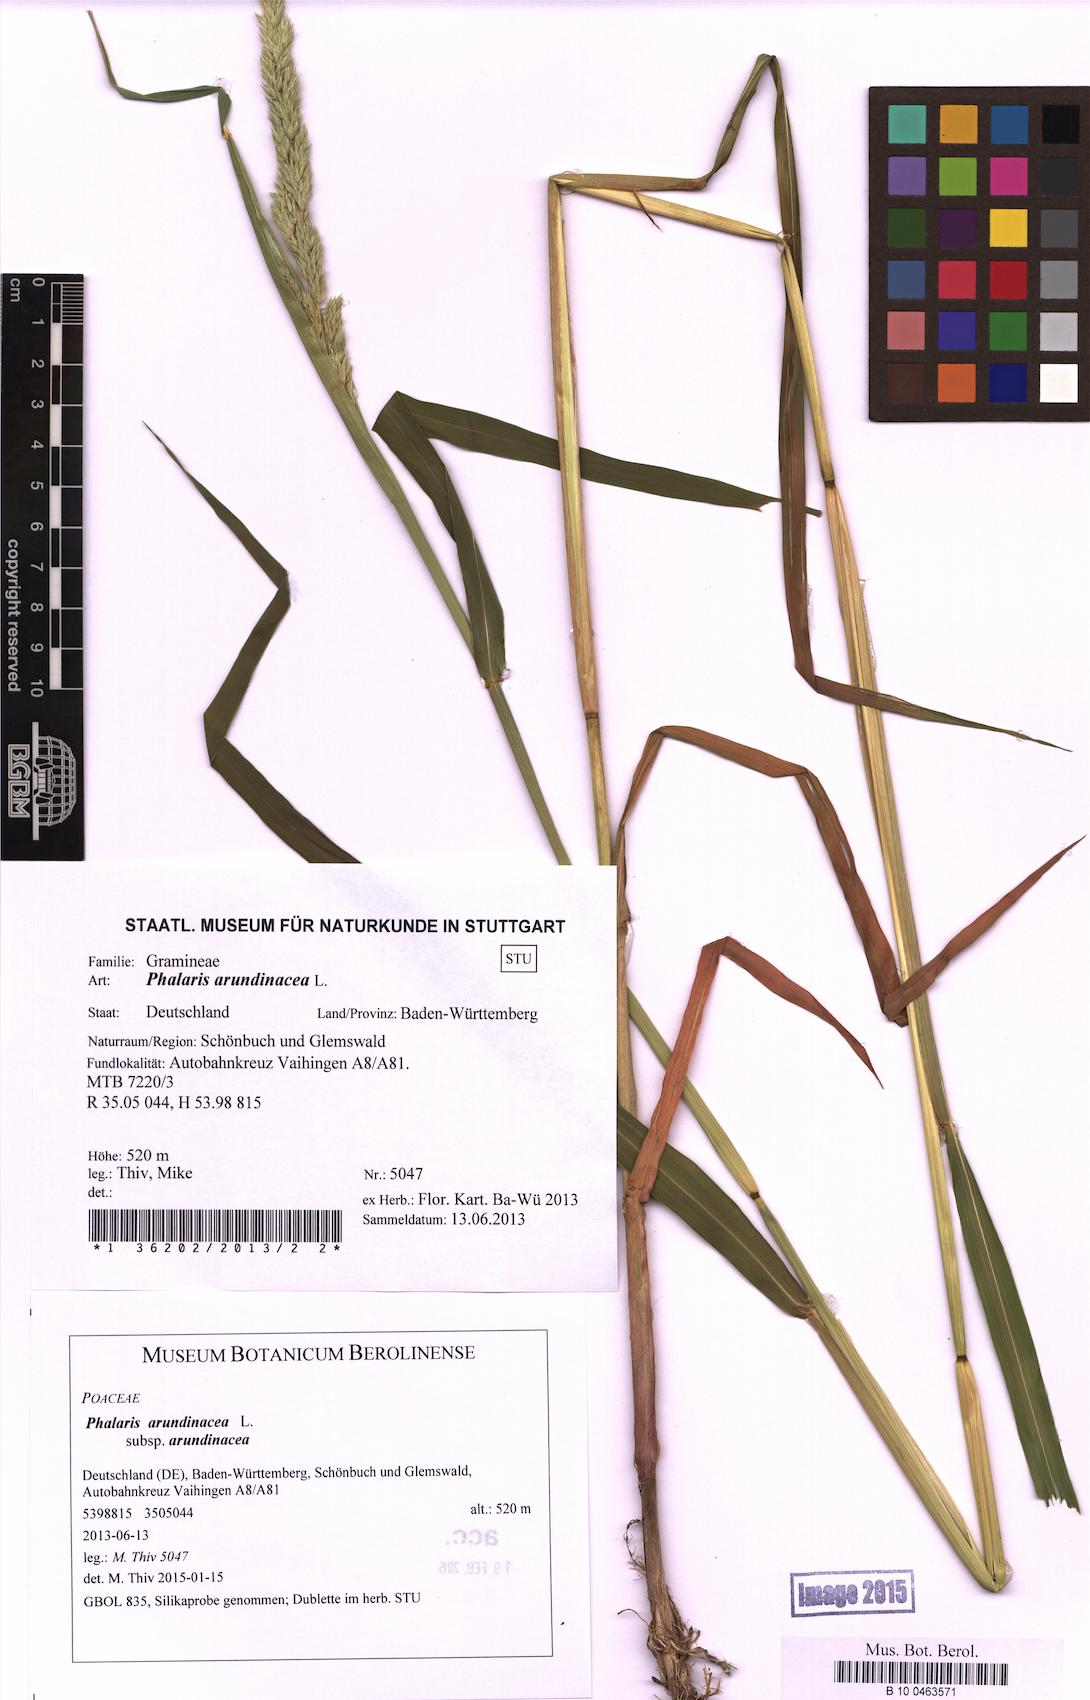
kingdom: Plantae
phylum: Tracheophyta
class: Liliopsida
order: Poales
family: Poaceae
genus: Phalaris
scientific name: Phalaris arundinacea
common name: Reed canary-grass
